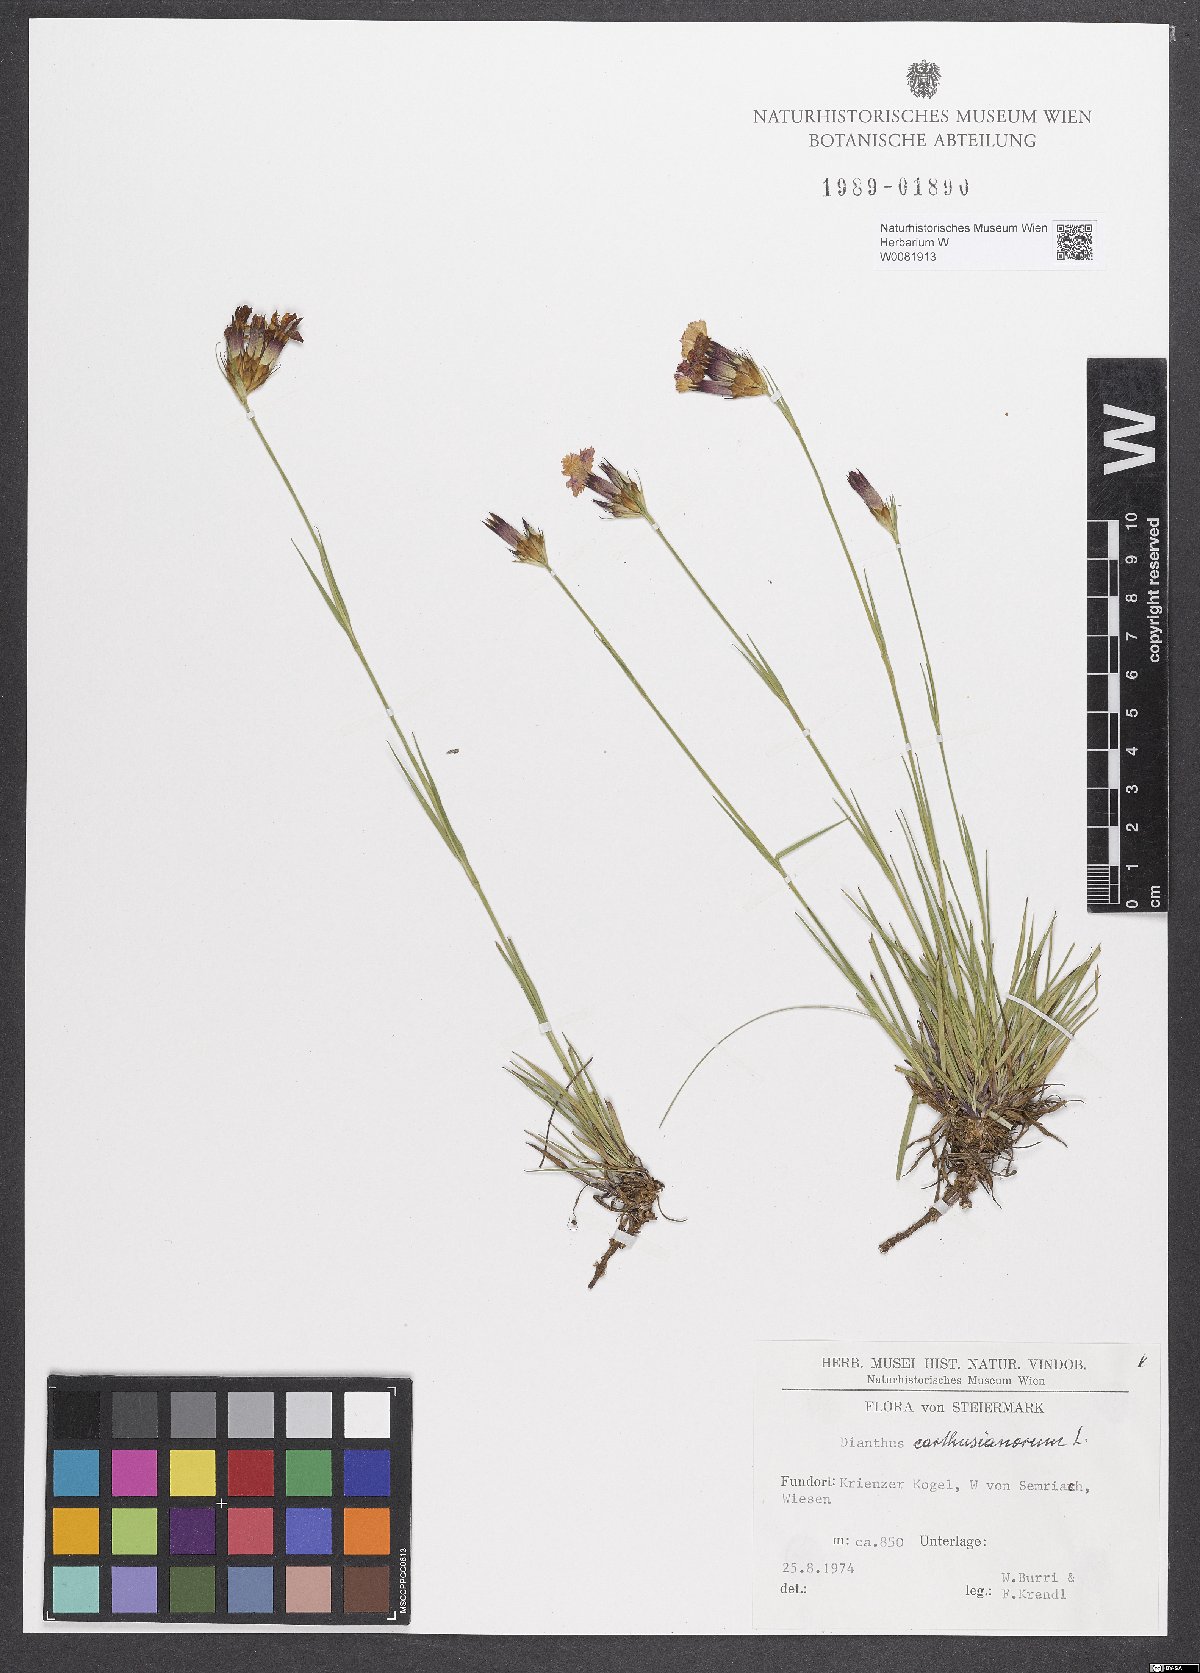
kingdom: Plantae
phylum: Tracheophyta
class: Magnoliopsida
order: Caryophyllales
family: Caryophyllaceae
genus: Dianthus
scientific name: Dianthus carthusianorum
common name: Carthusian pink
